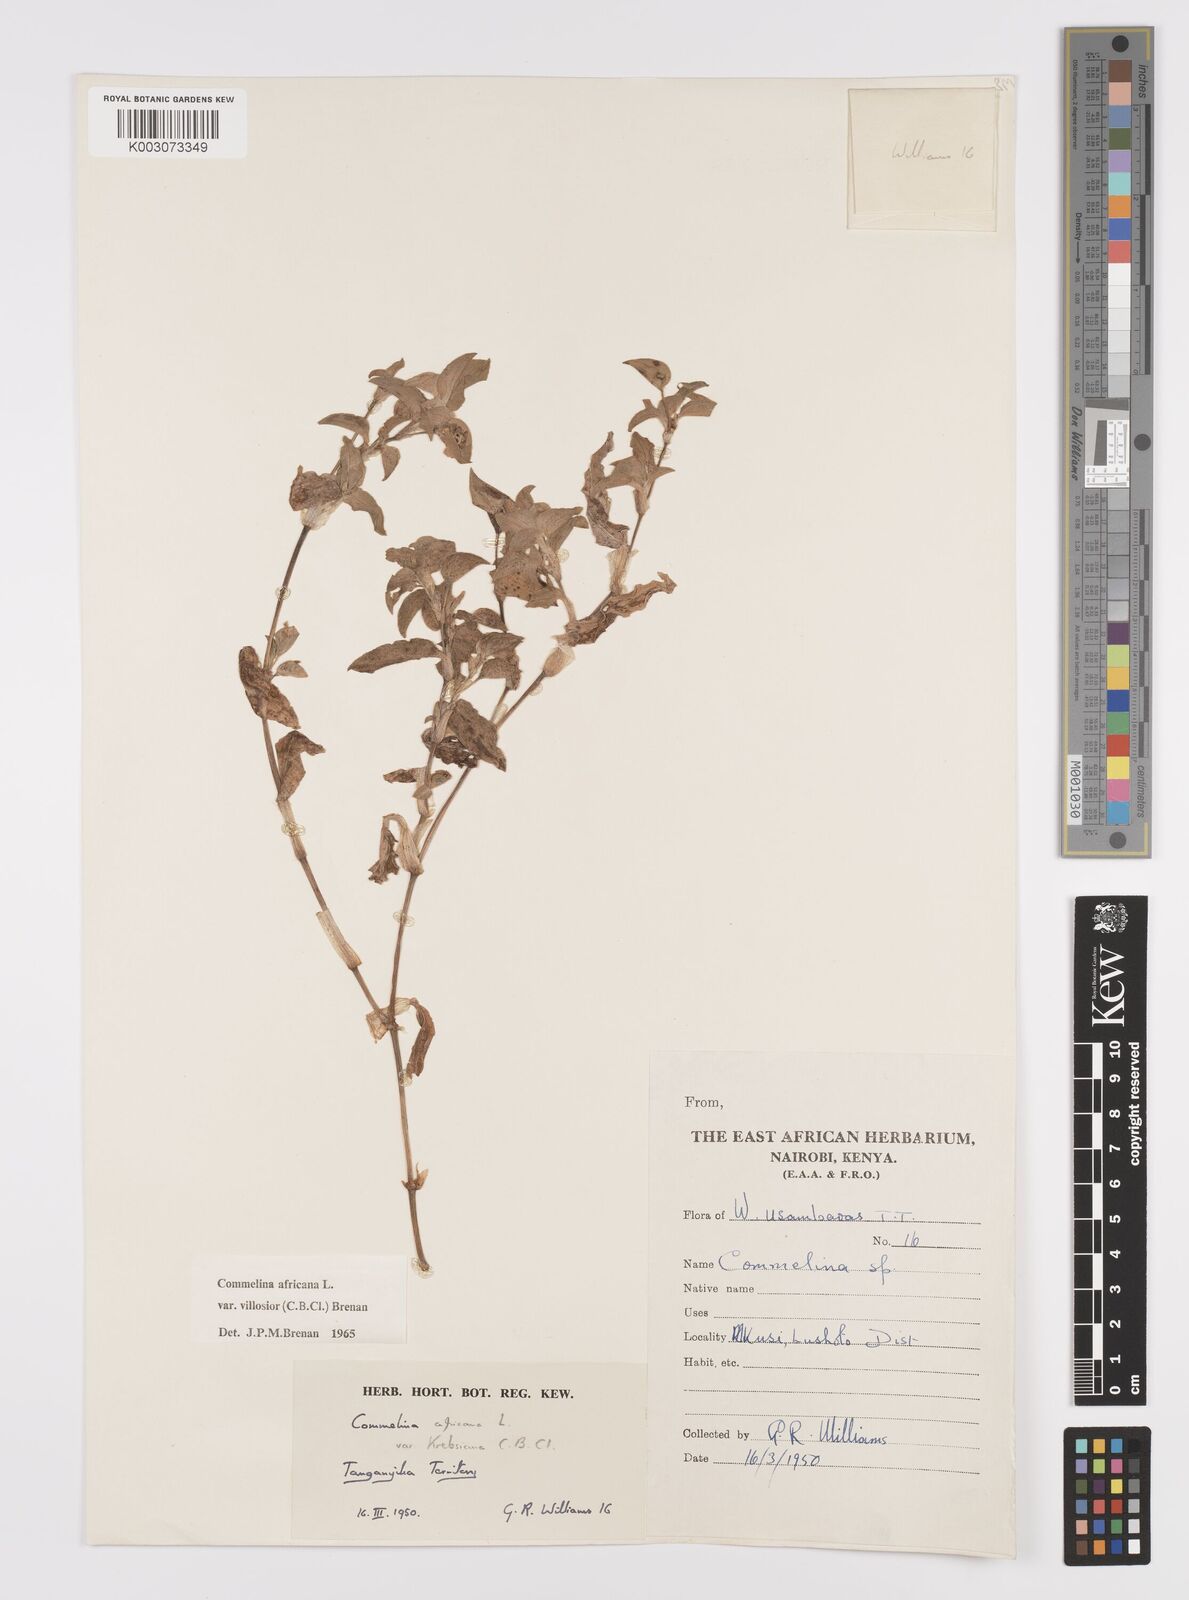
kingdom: Plantae
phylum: Tracheophyta
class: Liliopsida
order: Commelinales
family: Commelinaceae
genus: Commelina
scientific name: Commelina africana
